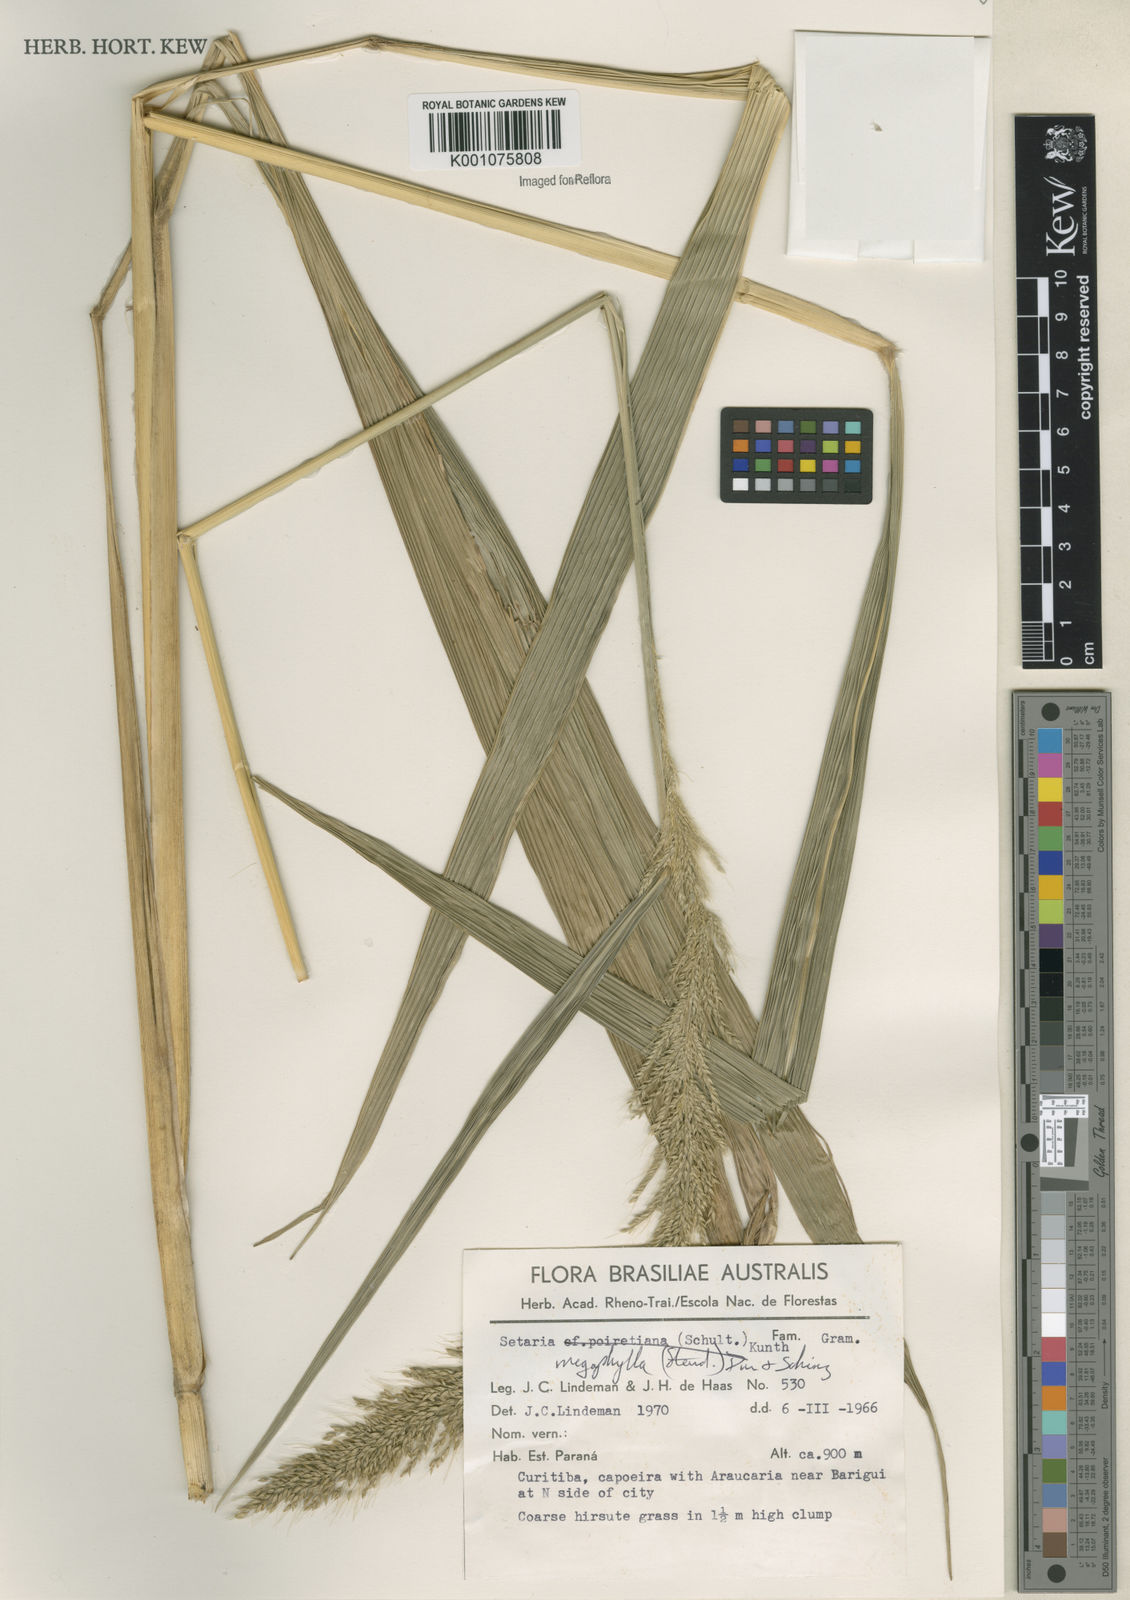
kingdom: Plantae
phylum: Tracheophyta
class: Liliopsida
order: Poales
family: Poaceae
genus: Setaria
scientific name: Setaria megaphylla
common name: Bigleaf bristlegrass
